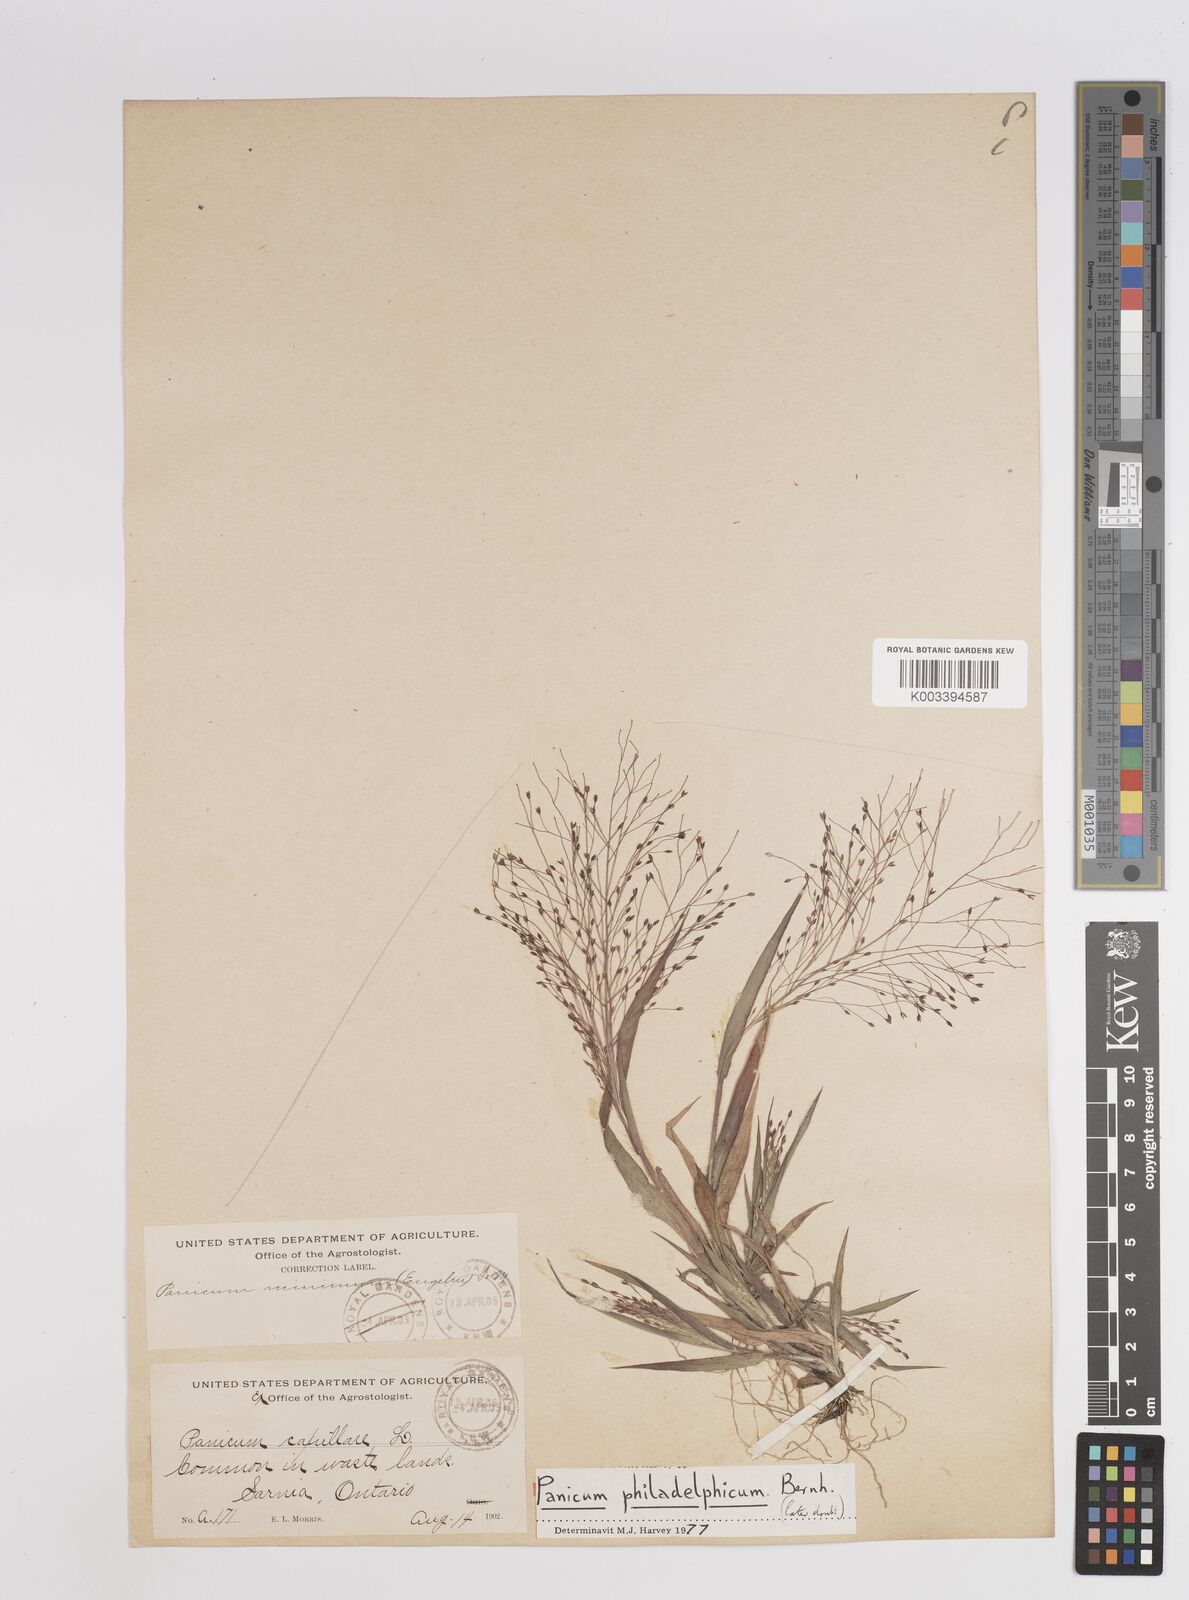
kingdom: Plantae
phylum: Tracheophyta
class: Liliopsida
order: Poales
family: Poaceae
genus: Panicum
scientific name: Panicum philadelphicum
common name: Philadelphia witchgrass
